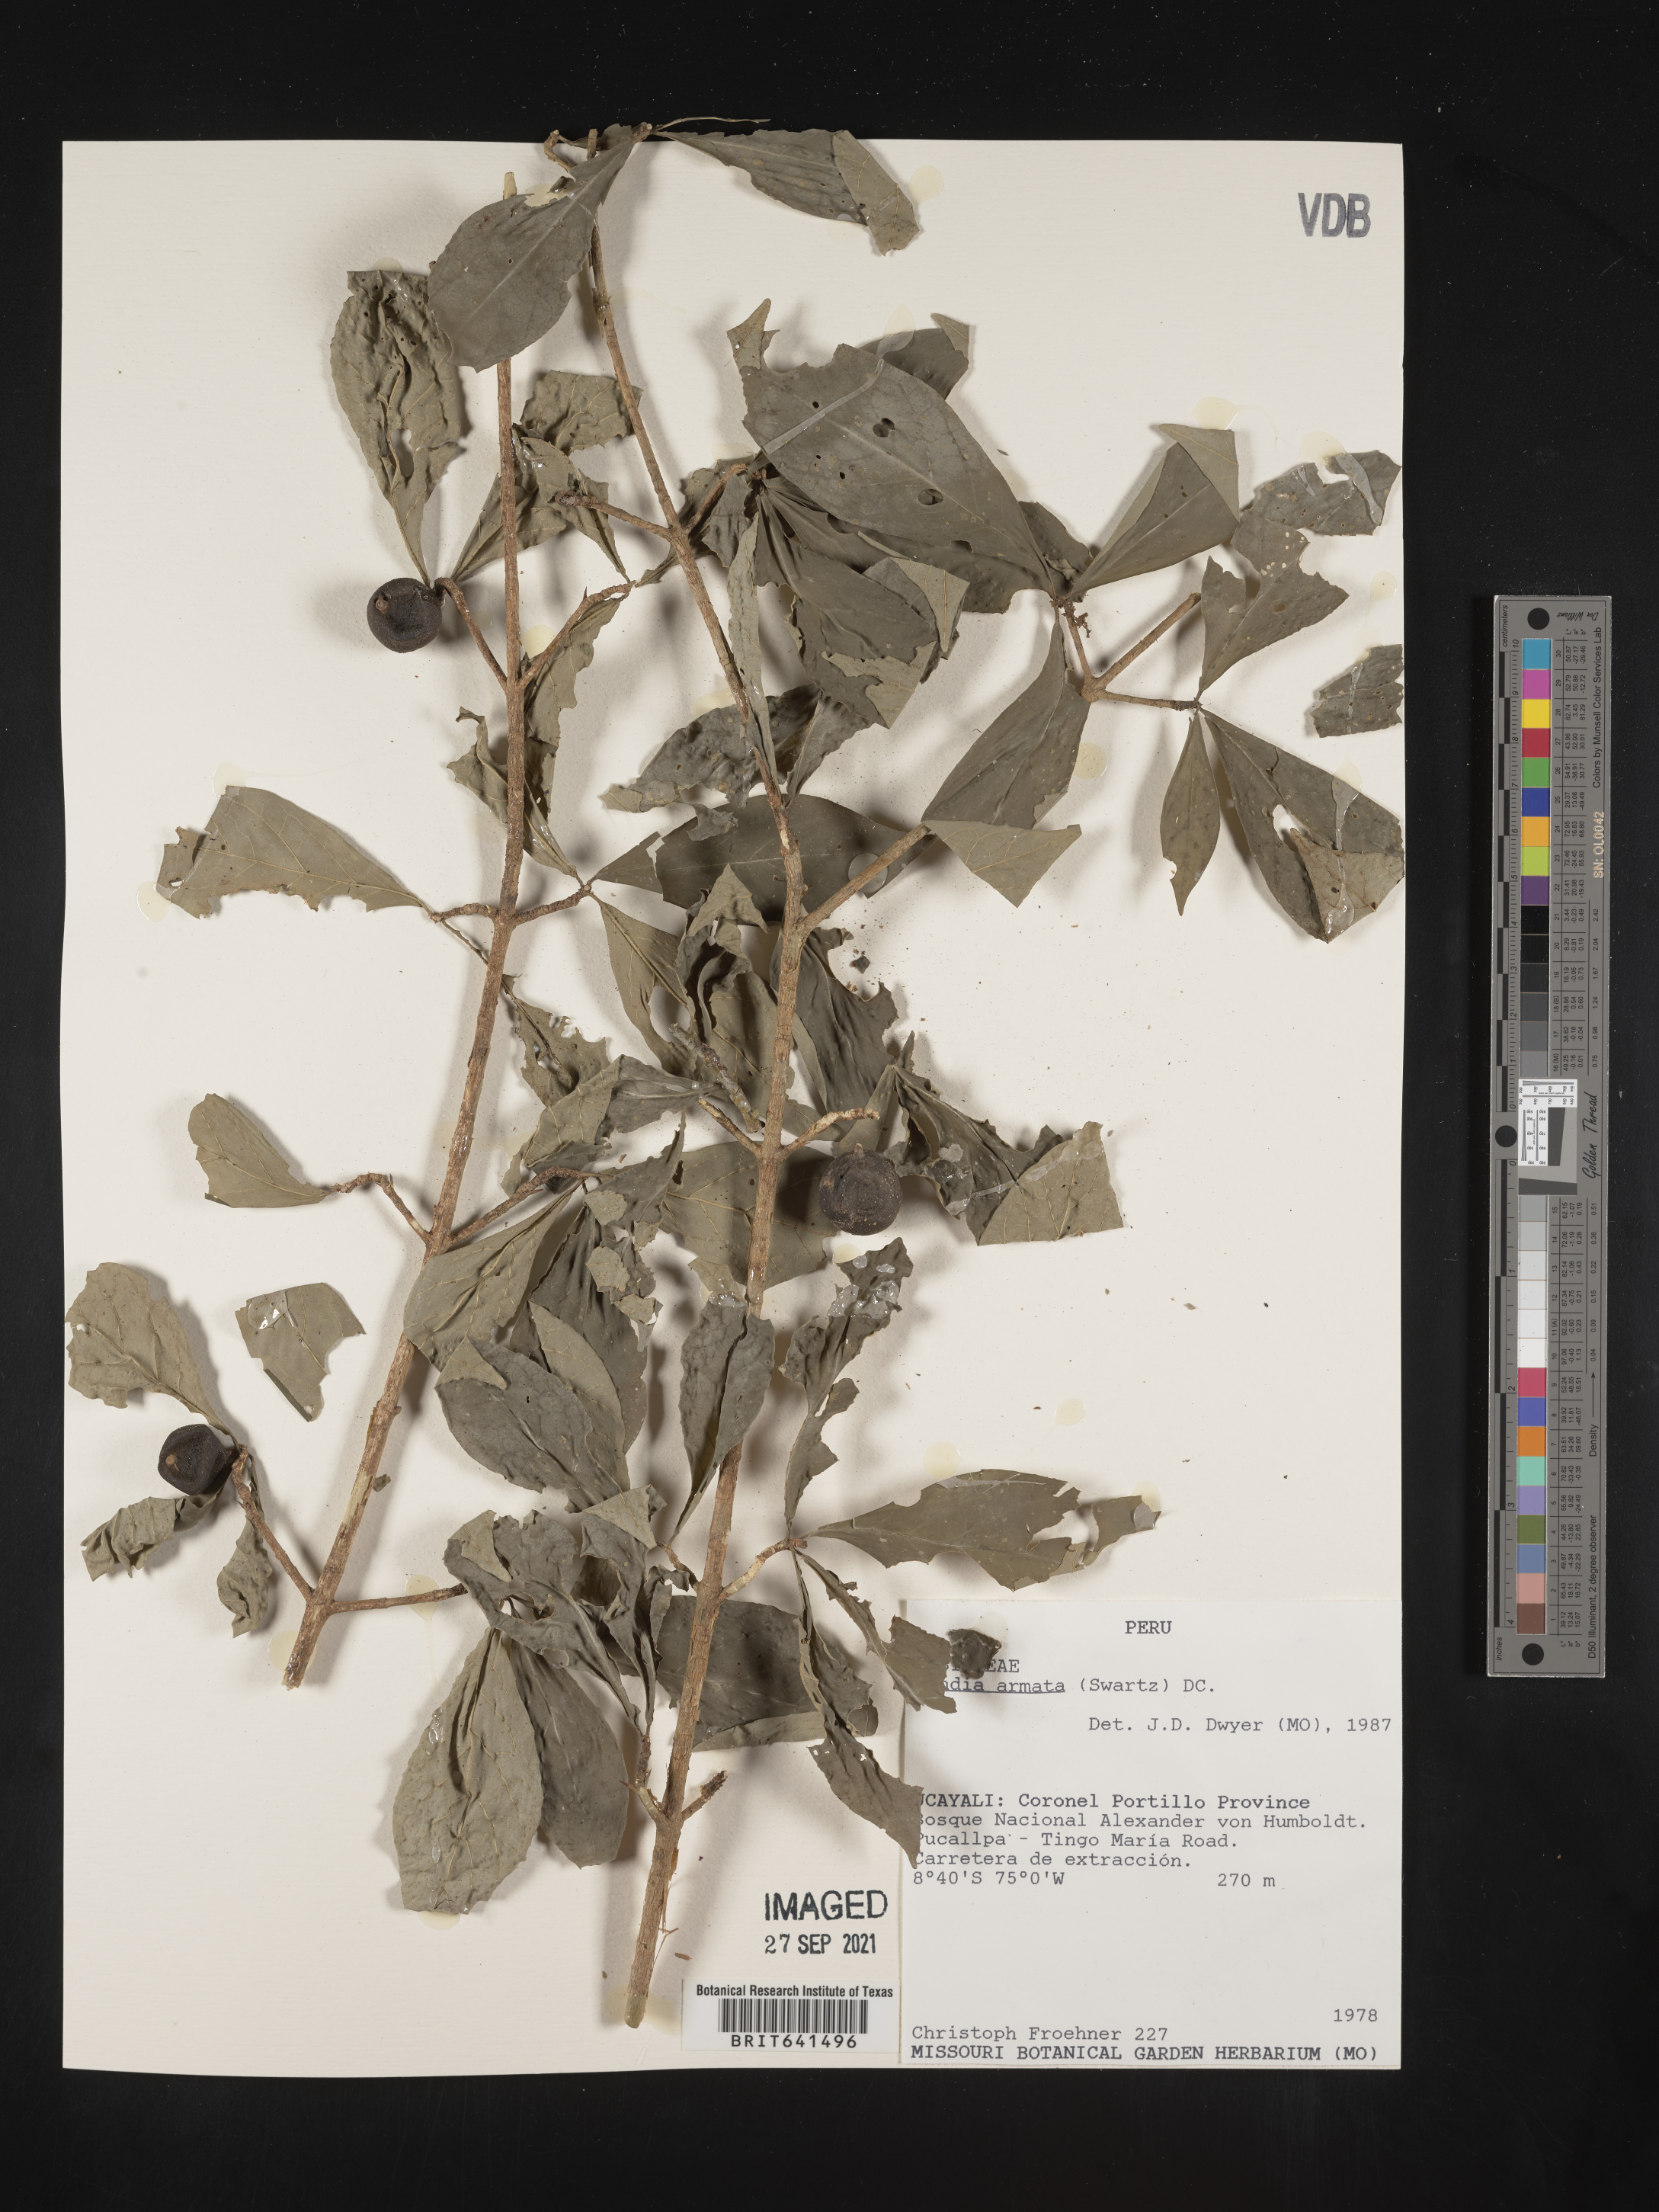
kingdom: Plantae
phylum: Tracheophyta
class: Magnoliopsida
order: Gentianales
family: Rubiaceae
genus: Randia
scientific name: Randia
